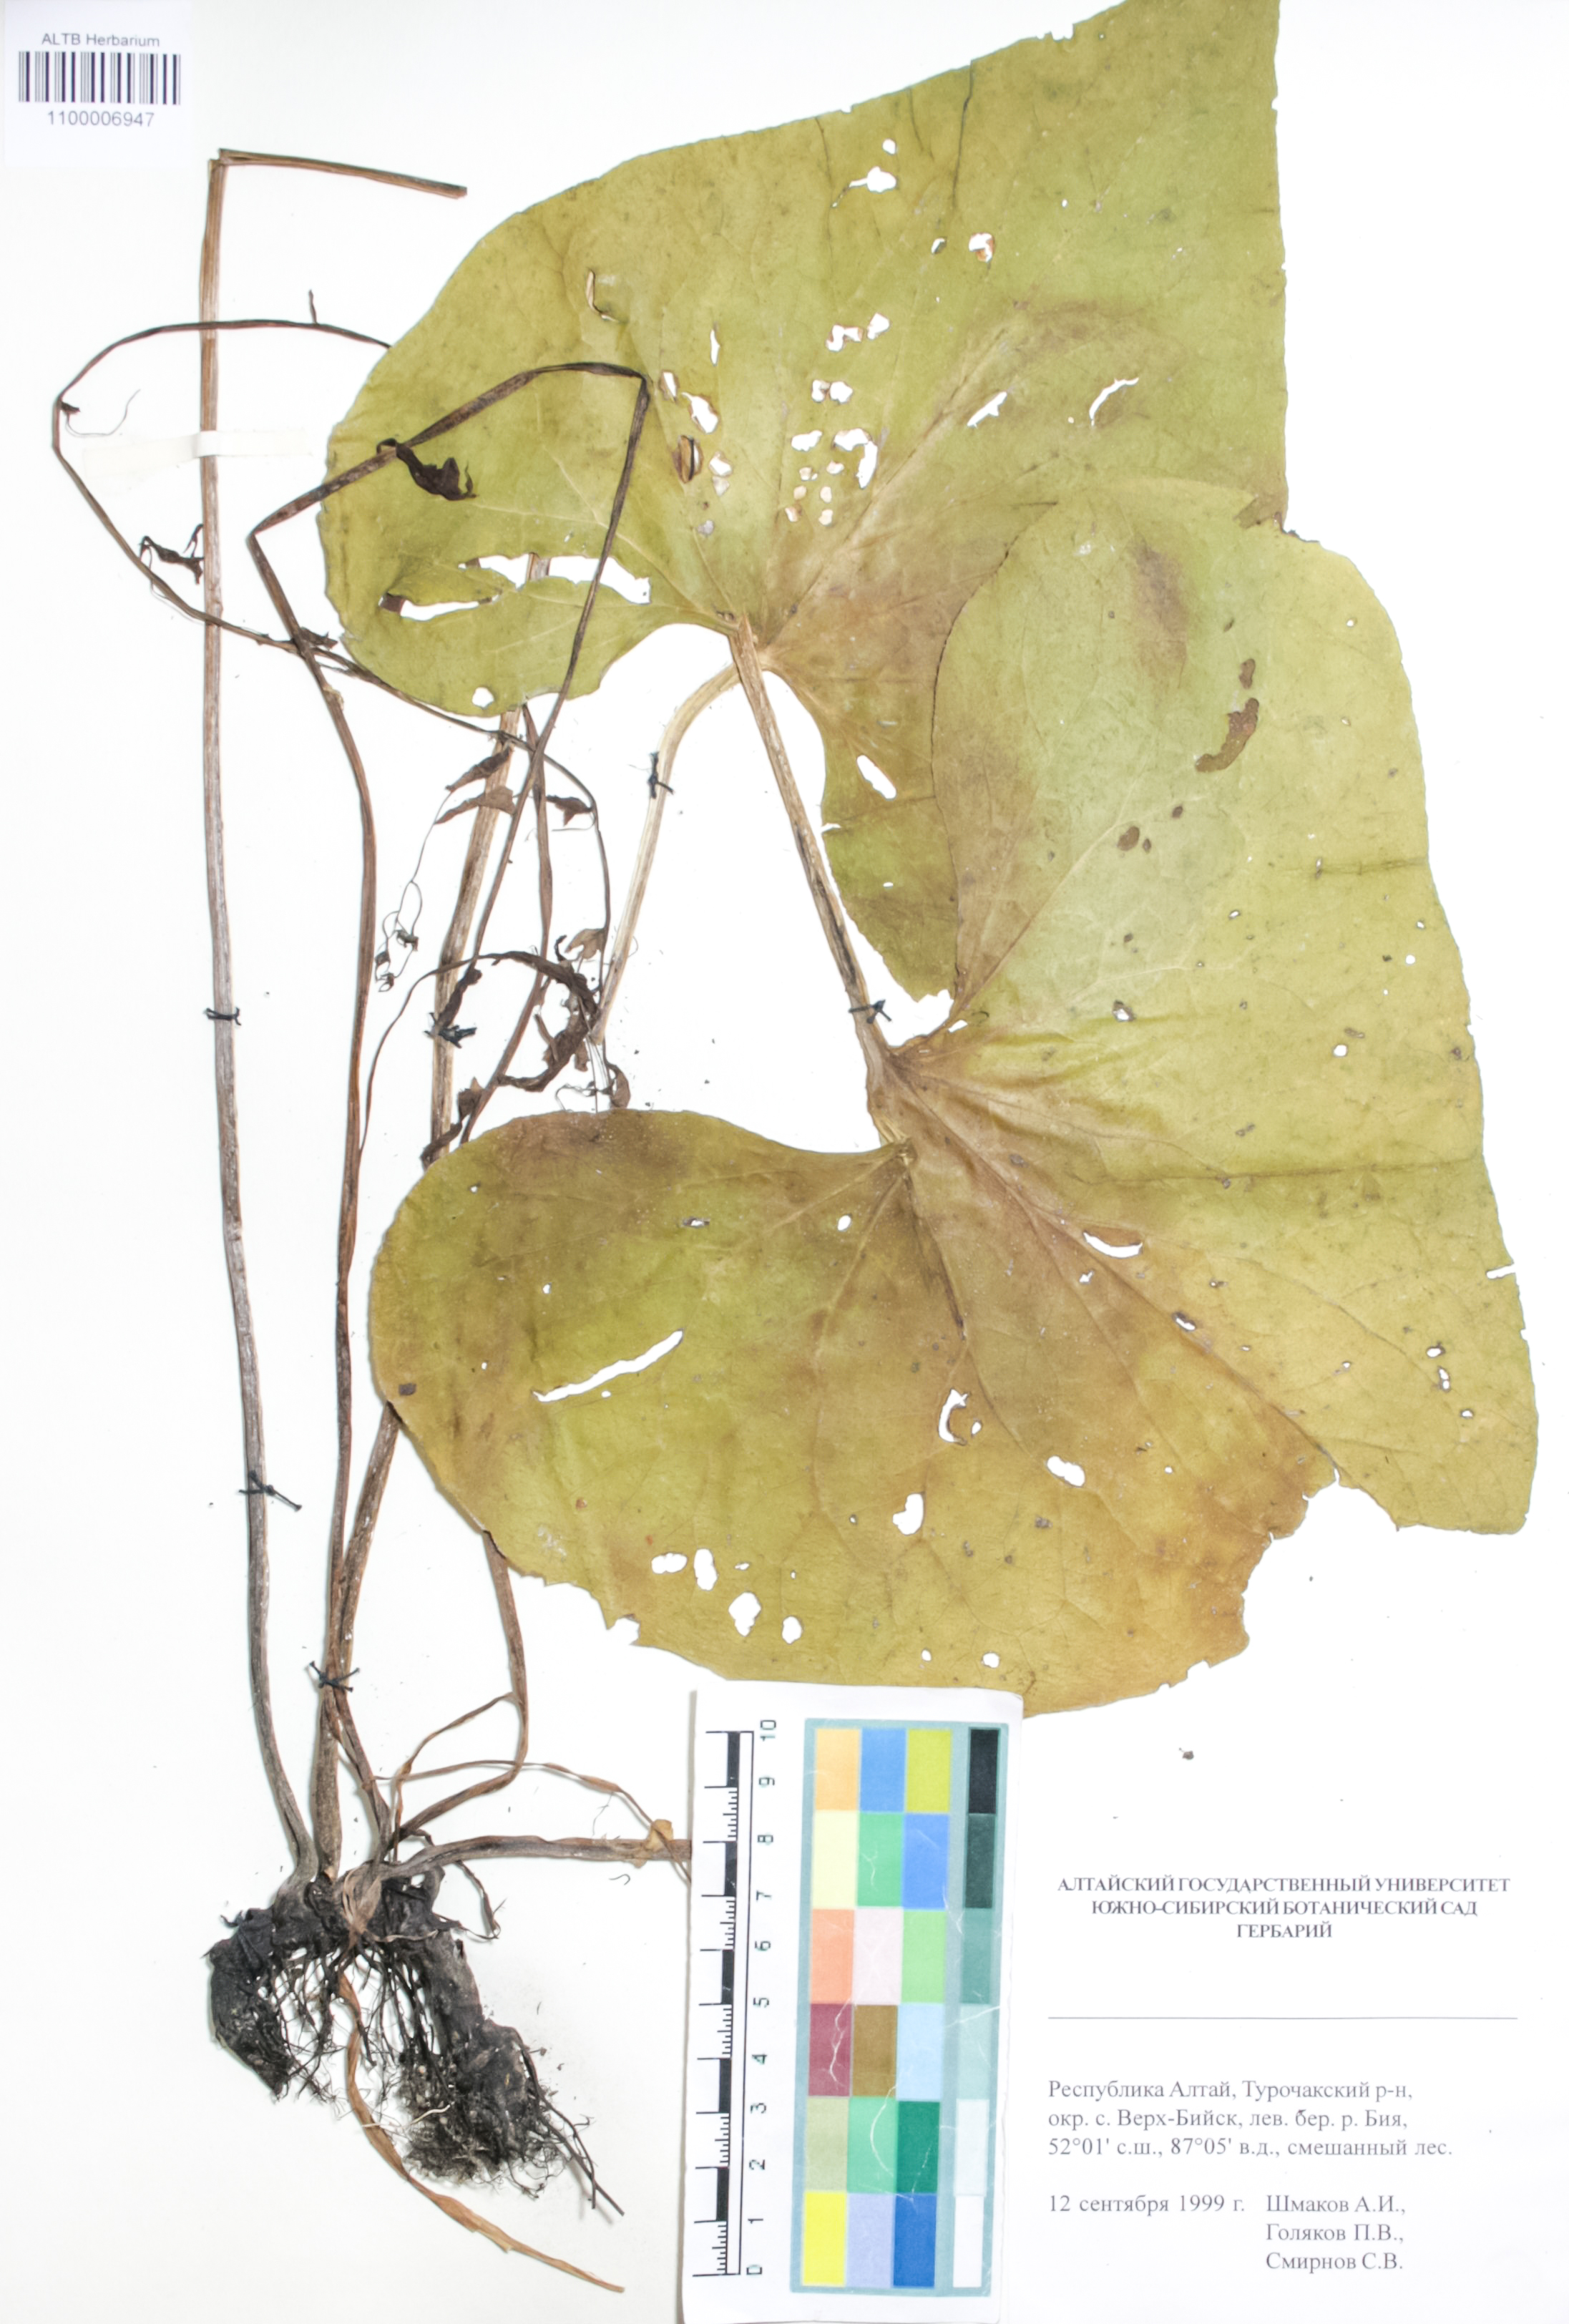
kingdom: Plantae
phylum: Tracheophyta
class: Magnoliopsida
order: Boraginales
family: Boraginaceae
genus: Rindera
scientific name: Rindera tetraspis
